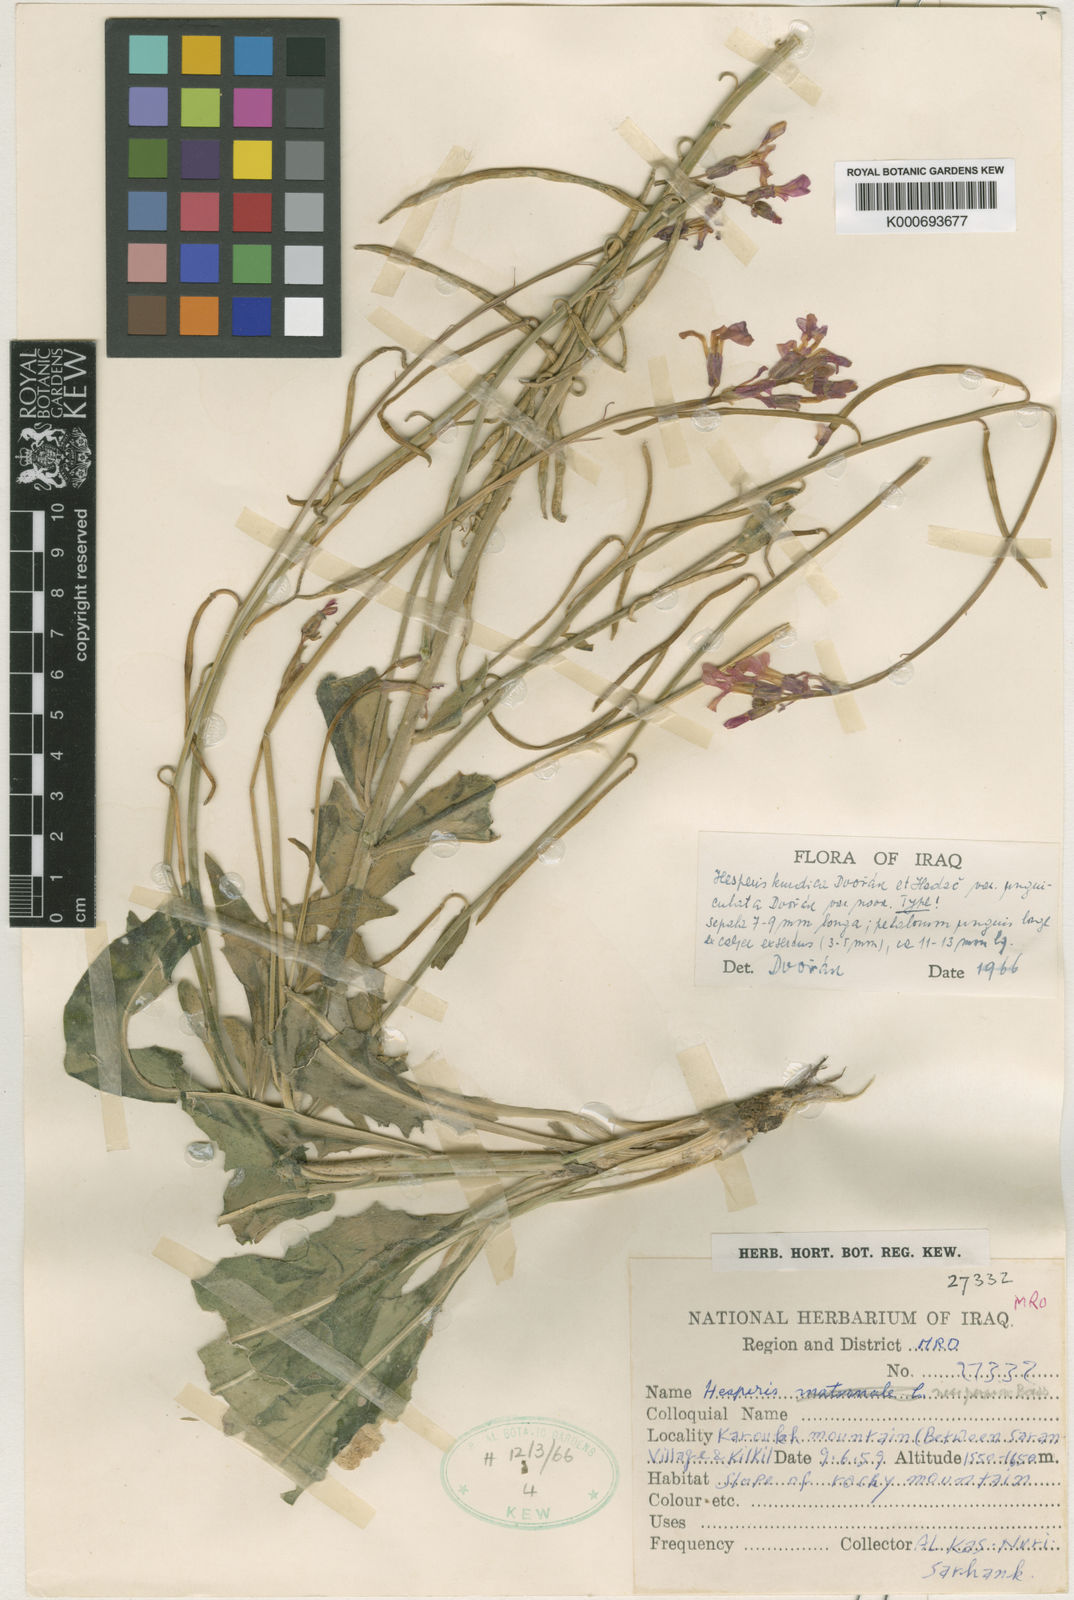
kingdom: Plantae
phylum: Tracheophyta
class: Magnoliopsida
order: Brassicales
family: Brassicaceae
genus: Hesperis
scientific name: Hesperis
